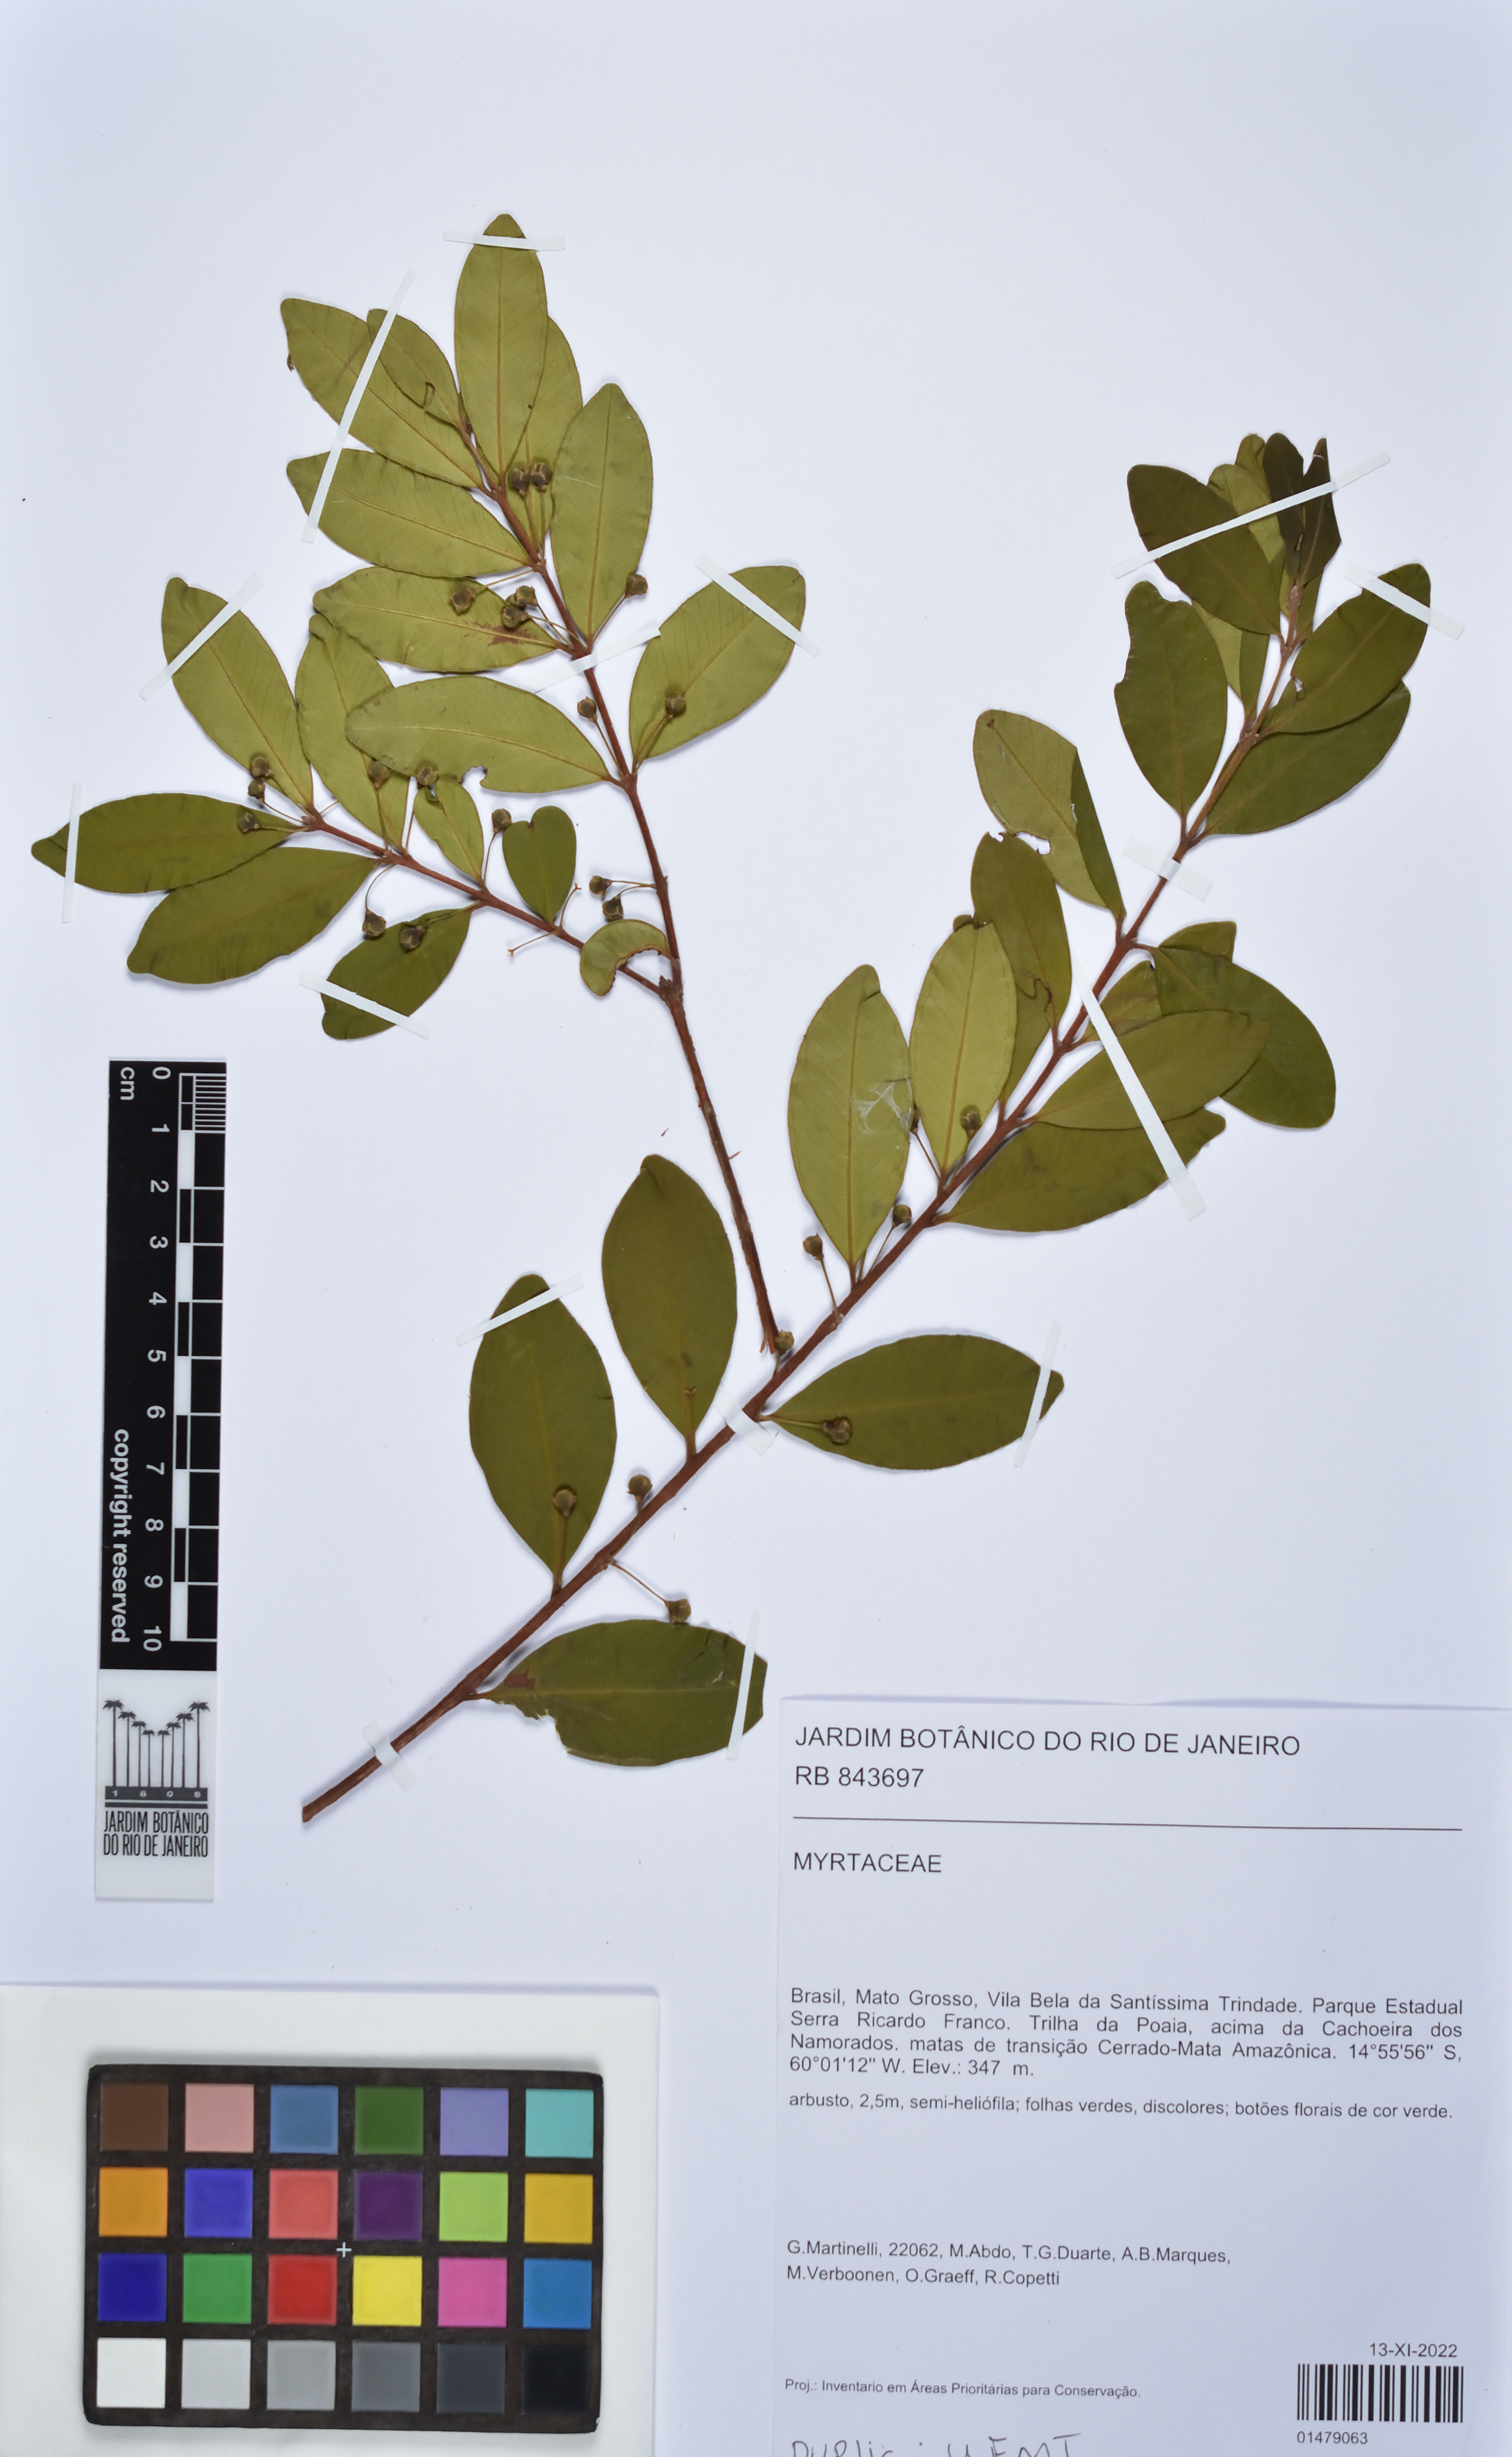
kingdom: Plantae
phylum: Tracheophyta
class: Magnoliopsida
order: Myrtales
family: Myrtaceae
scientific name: Myrtaceae
